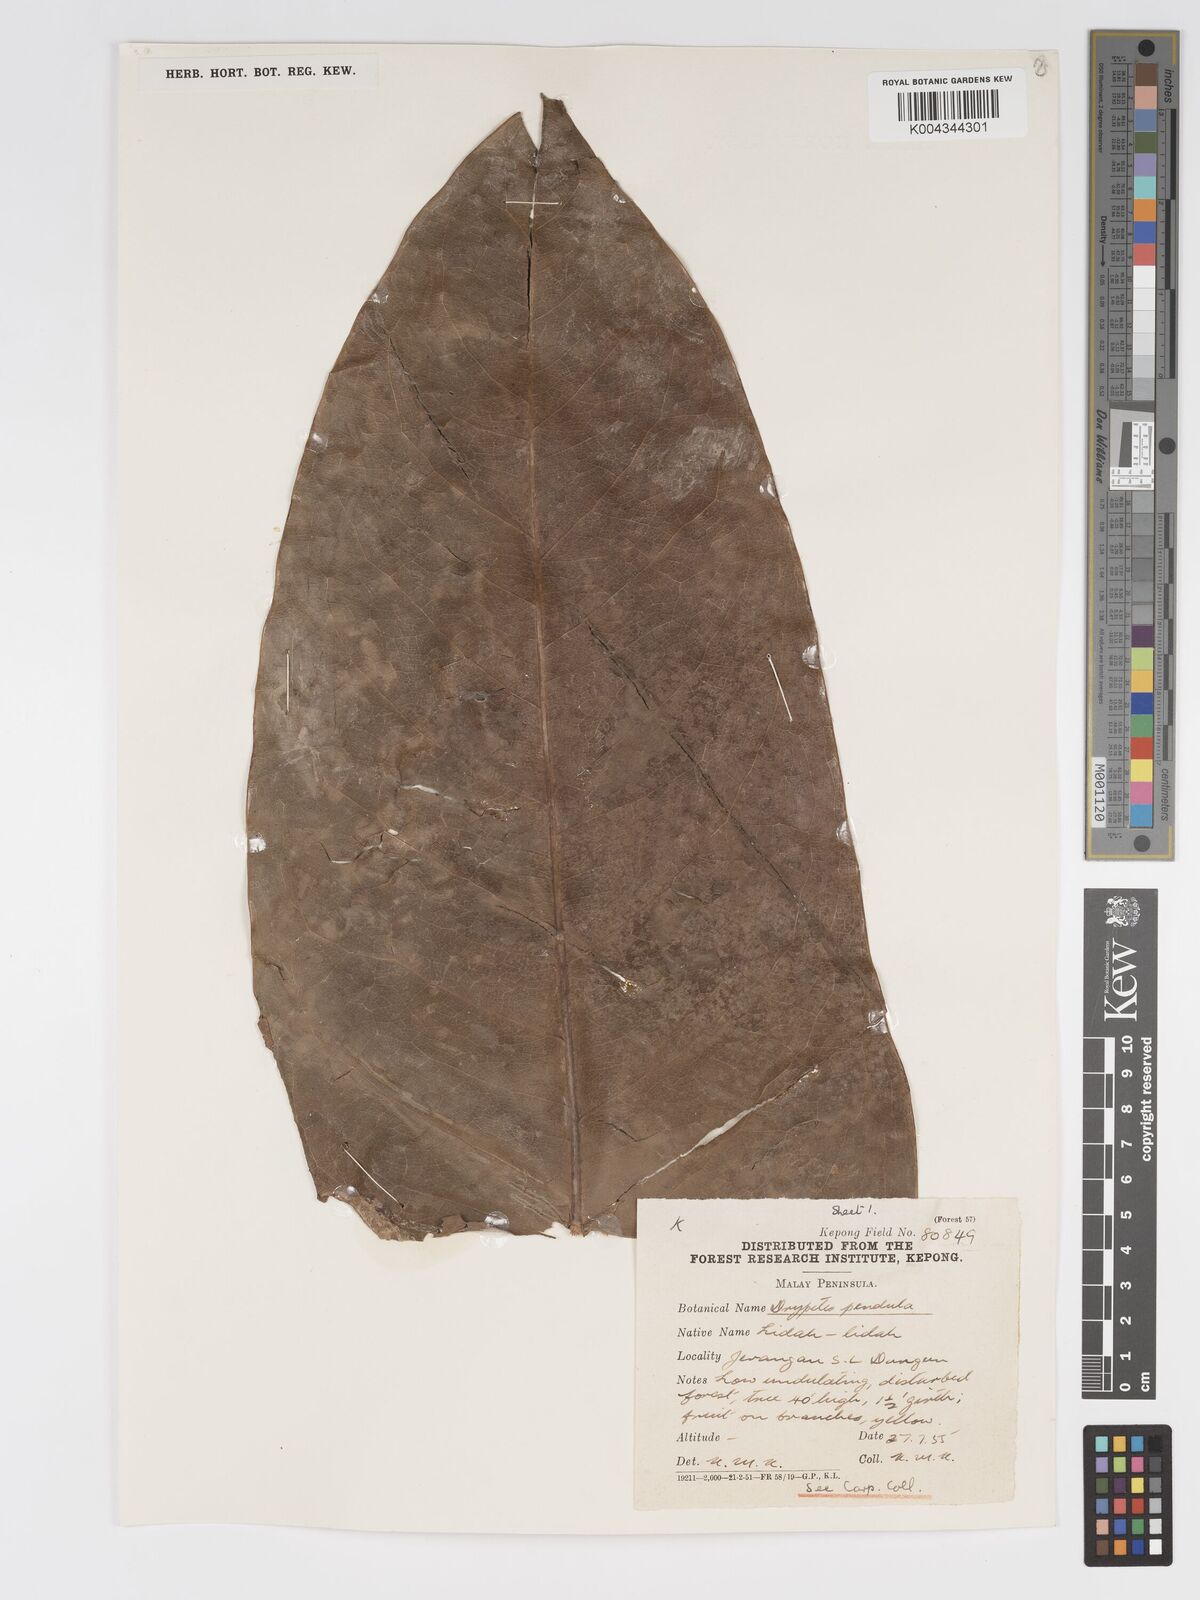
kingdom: Plantae
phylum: Tracheophyta
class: Magnoliopsida
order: Malpighiales
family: Putranjivaceae
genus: Drypetes
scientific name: Drypetes pendula
